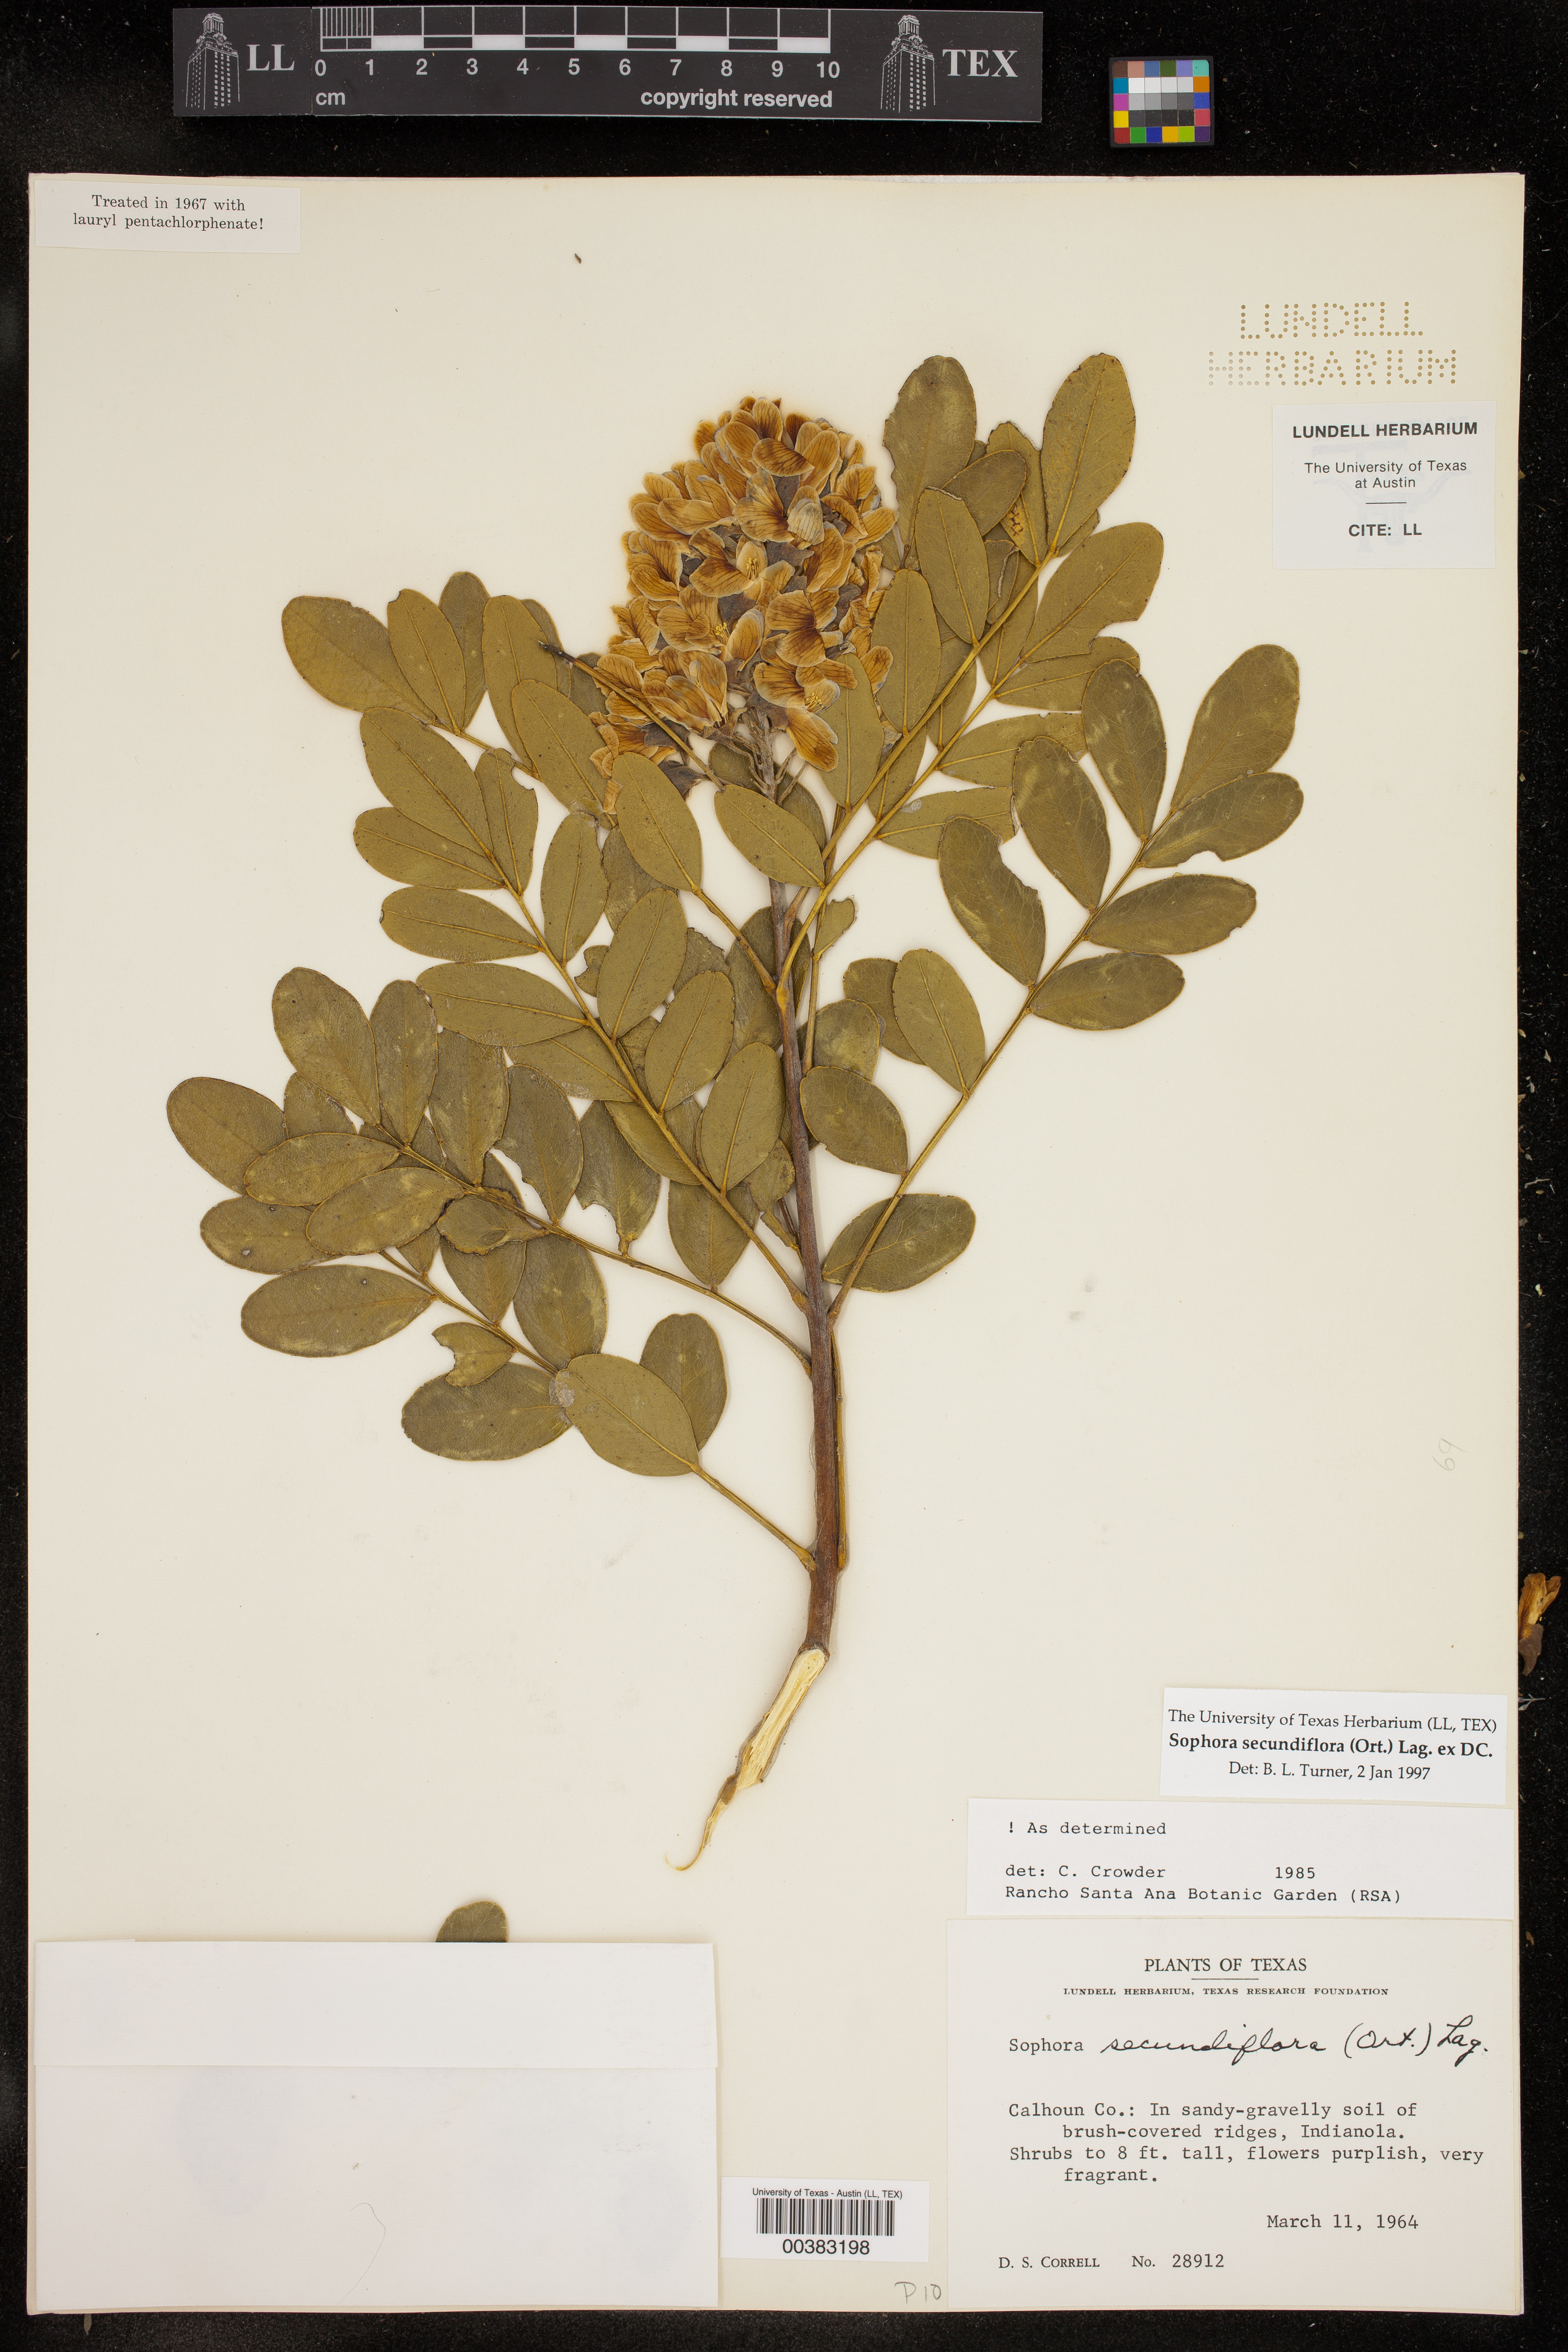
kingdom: Plantae
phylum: Tracheophyta
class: Magnoliopsida
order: Fabales
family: Fabaceae
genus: Dermatophyllum
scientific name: Dermatophyllum secundiflorum
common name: Texas-mountain-laurel
